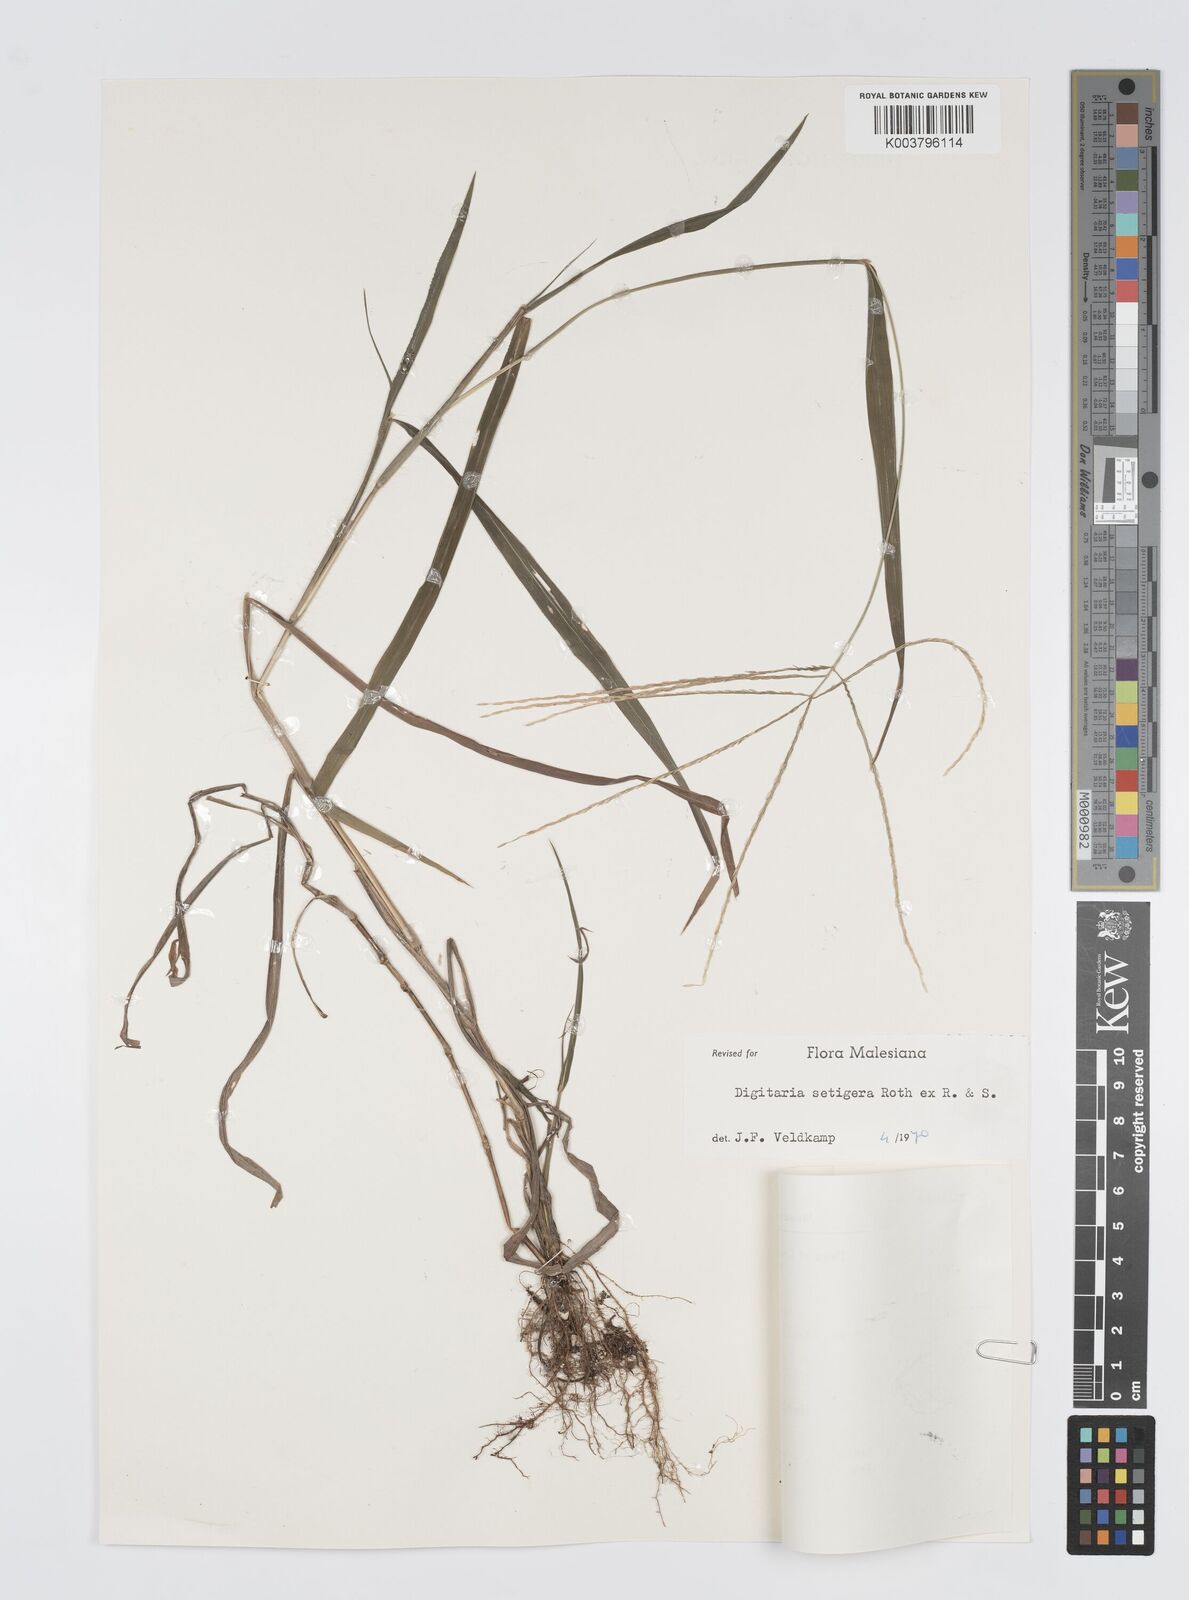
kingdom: Plantae
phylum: Tracheophyta
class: Liliopsida
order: Poales
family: Poaceae
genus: Digitaria
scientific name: Digitaria setigera
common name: East indian crabgrass
